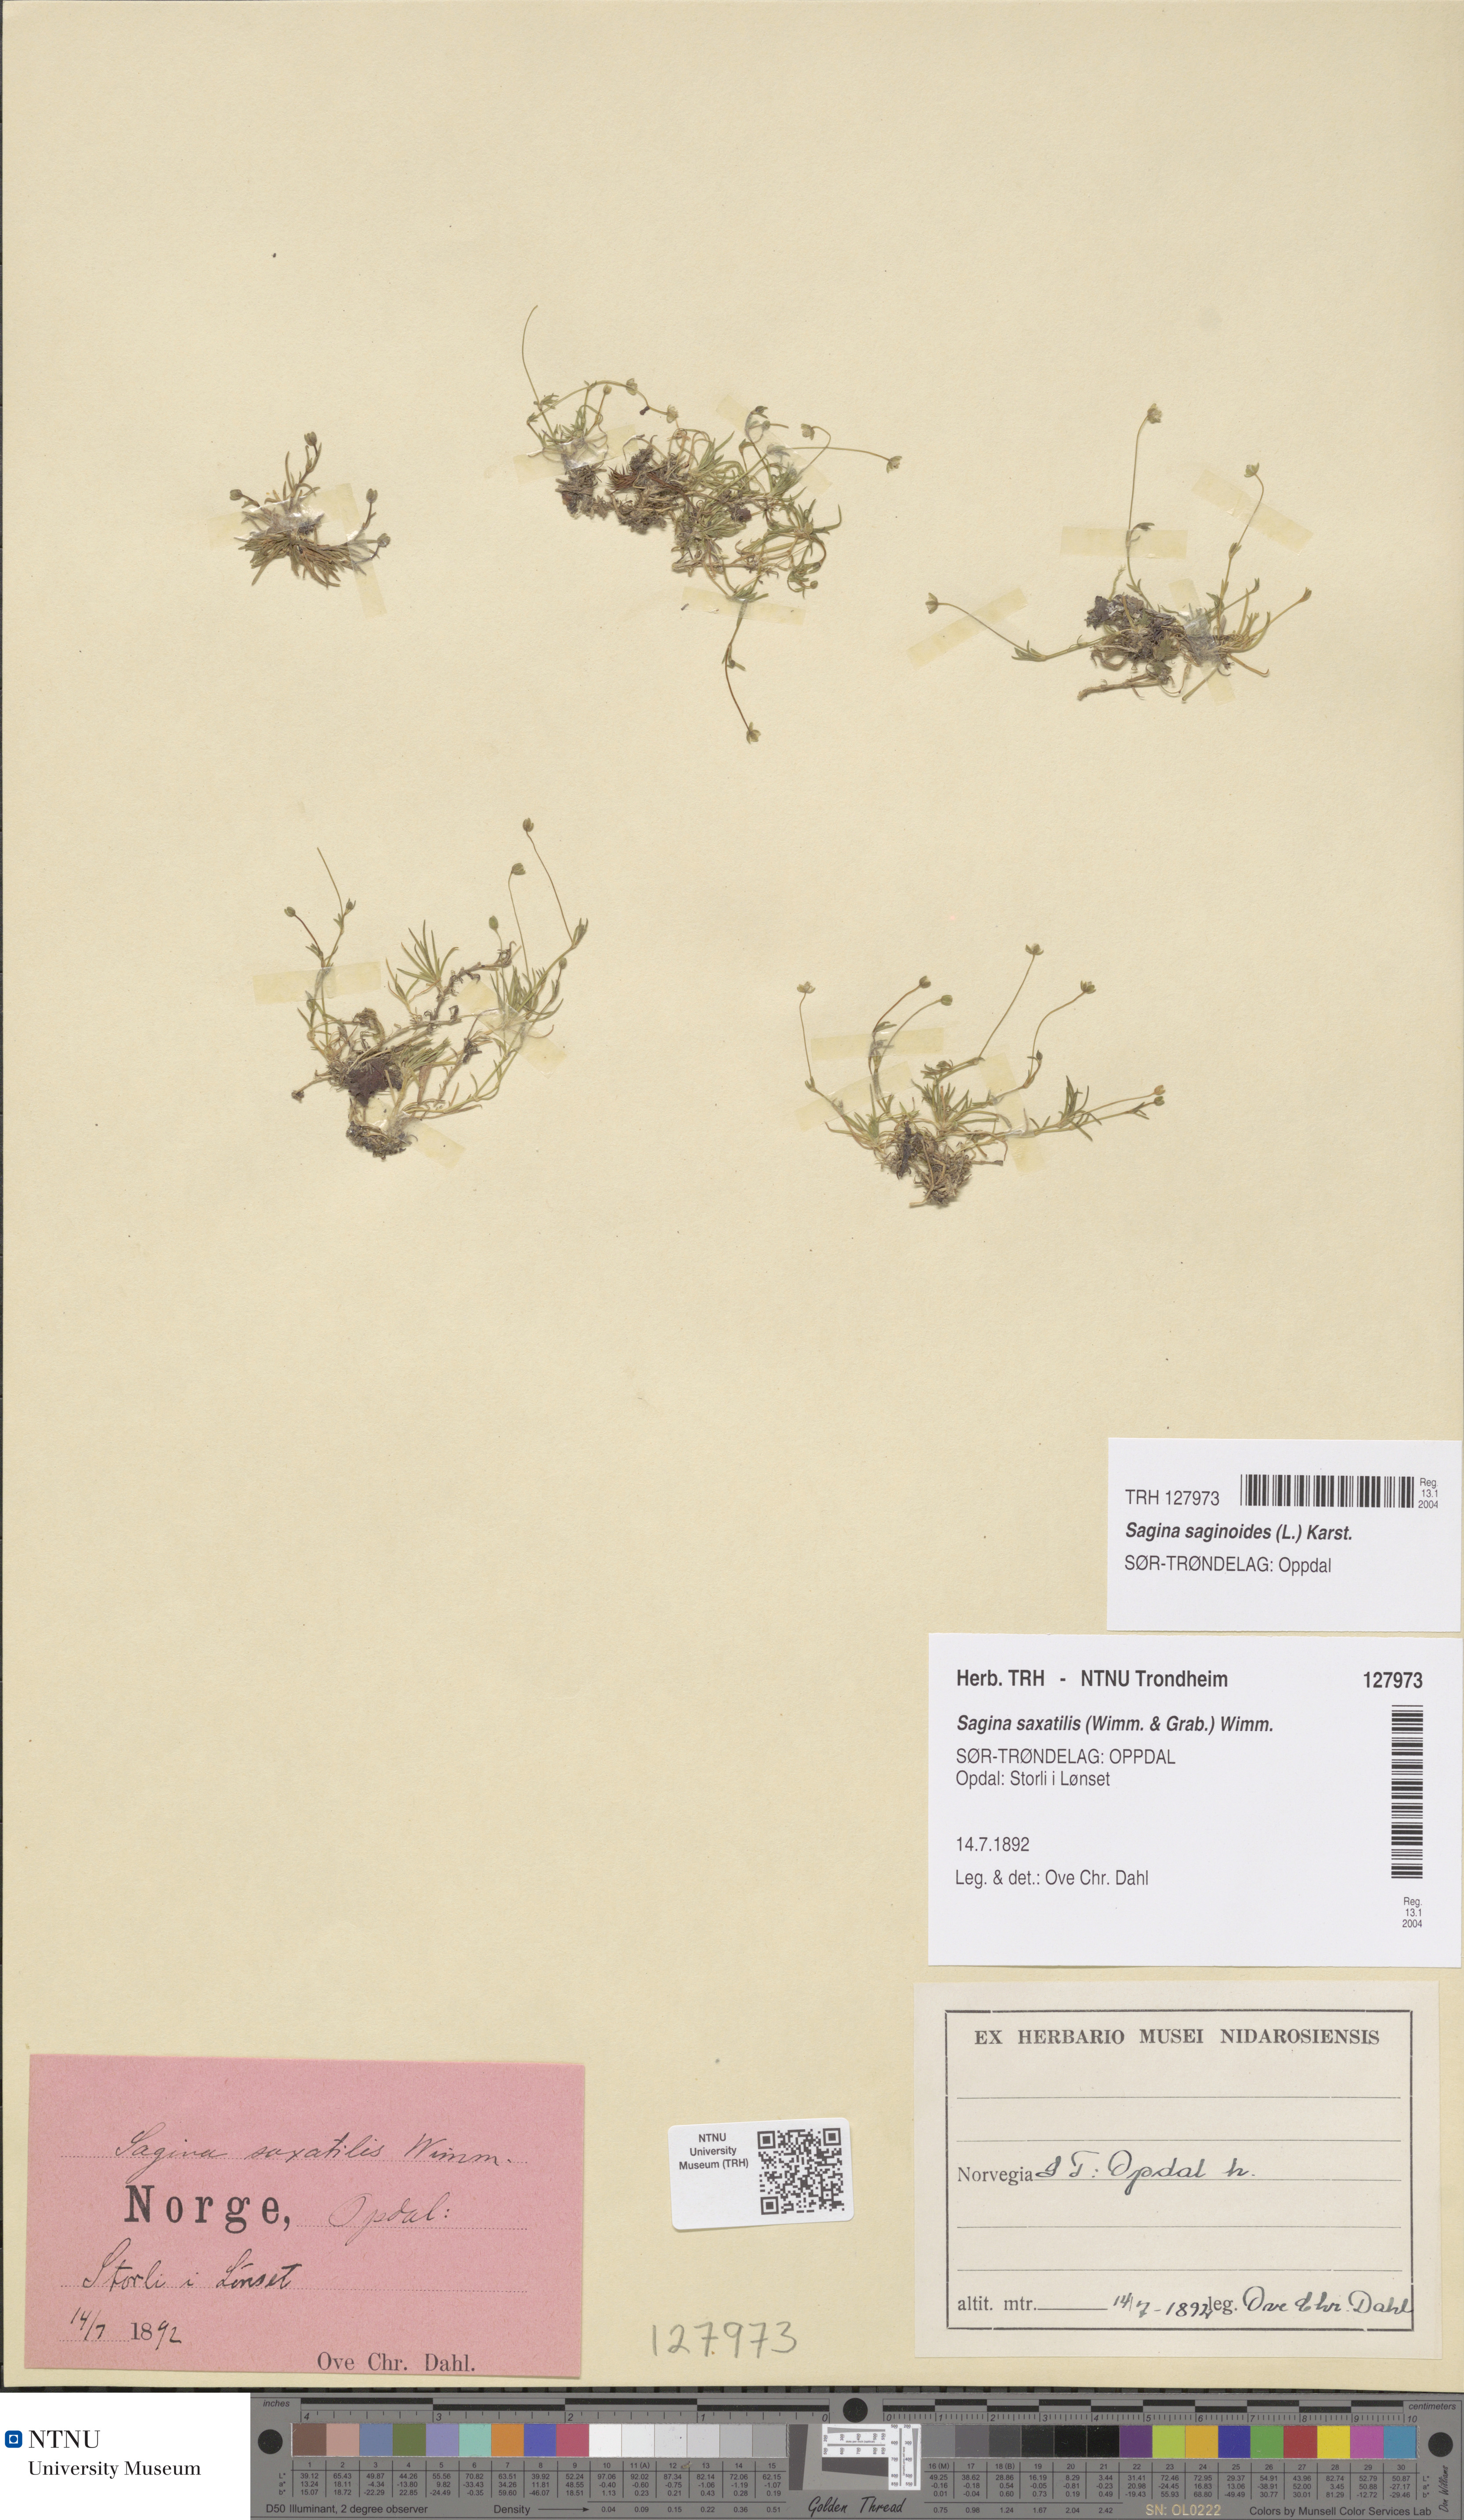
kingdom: Plantae
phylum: Tracheophyta
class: Magnoliopsida
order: Caryophyllales
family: Caryophyllaceae
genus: Sagina
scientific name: Sagina saginoides
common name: Alpine pearlwort
